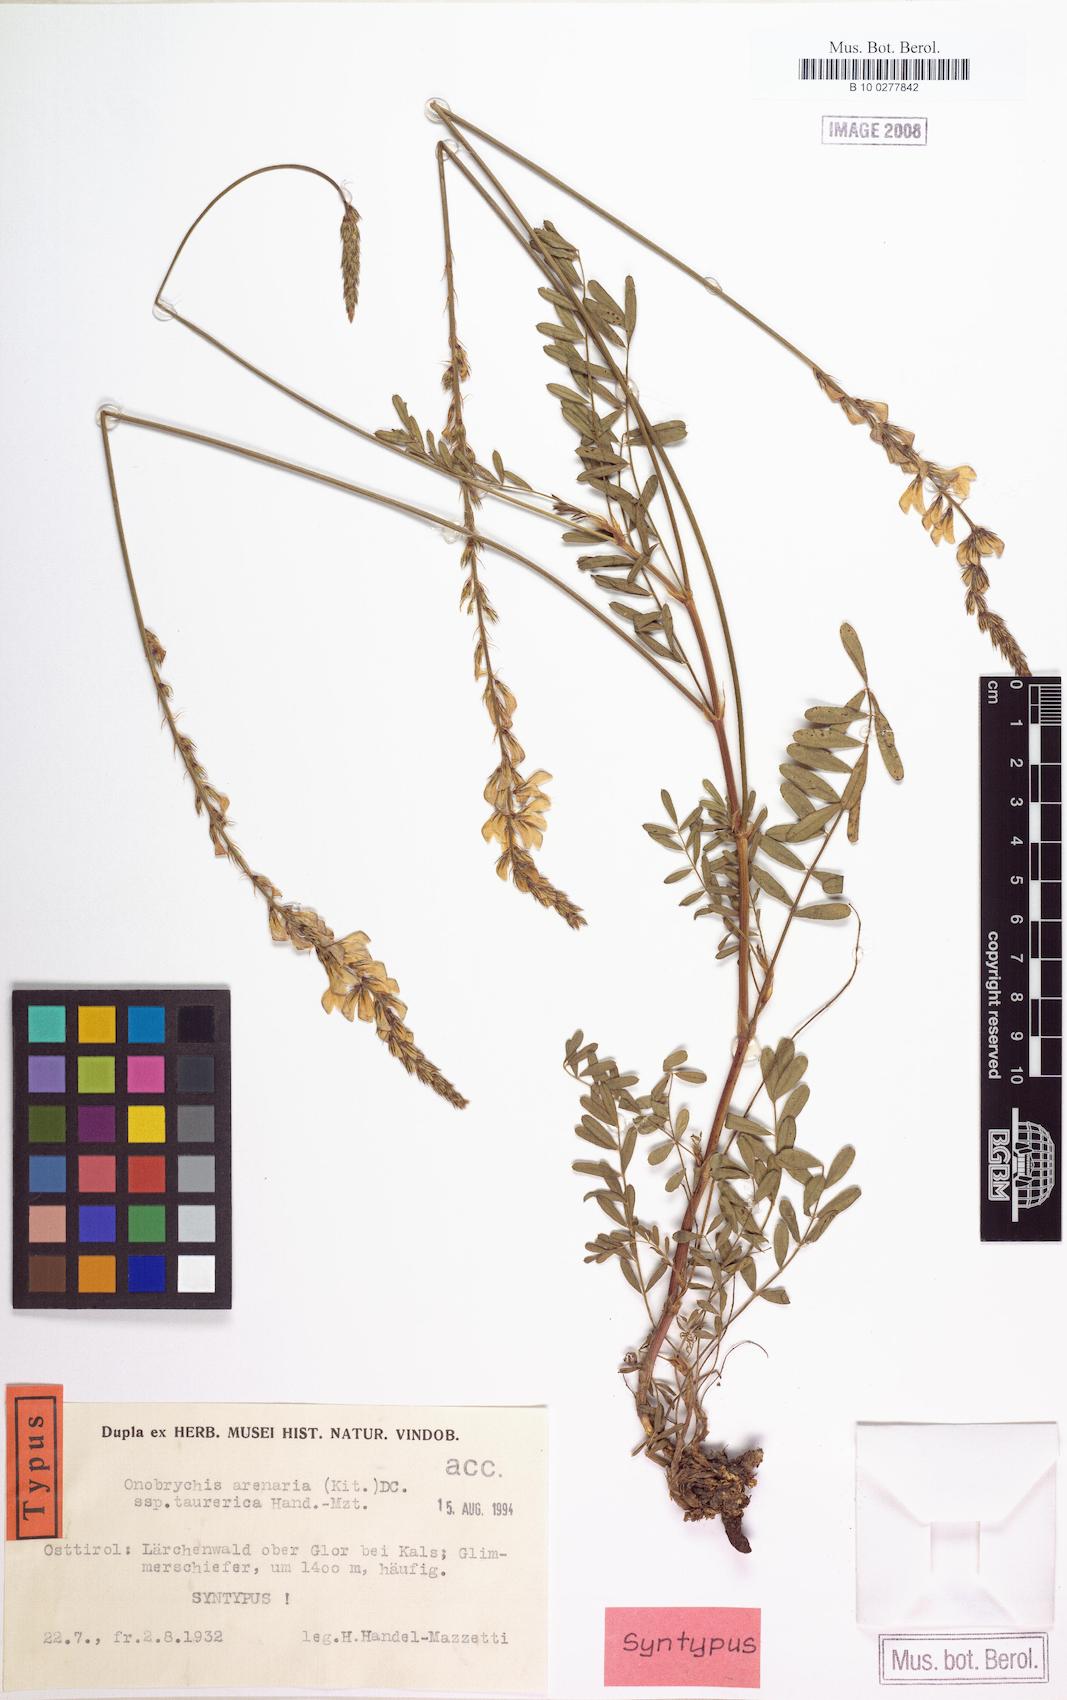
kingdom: Plantae
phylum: Tracheophyta
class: Magnoliopsida
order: Fabales
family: Fabaceae
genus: Onobrychis
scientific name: Onobrychis arenaria
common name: Sand esparcet
